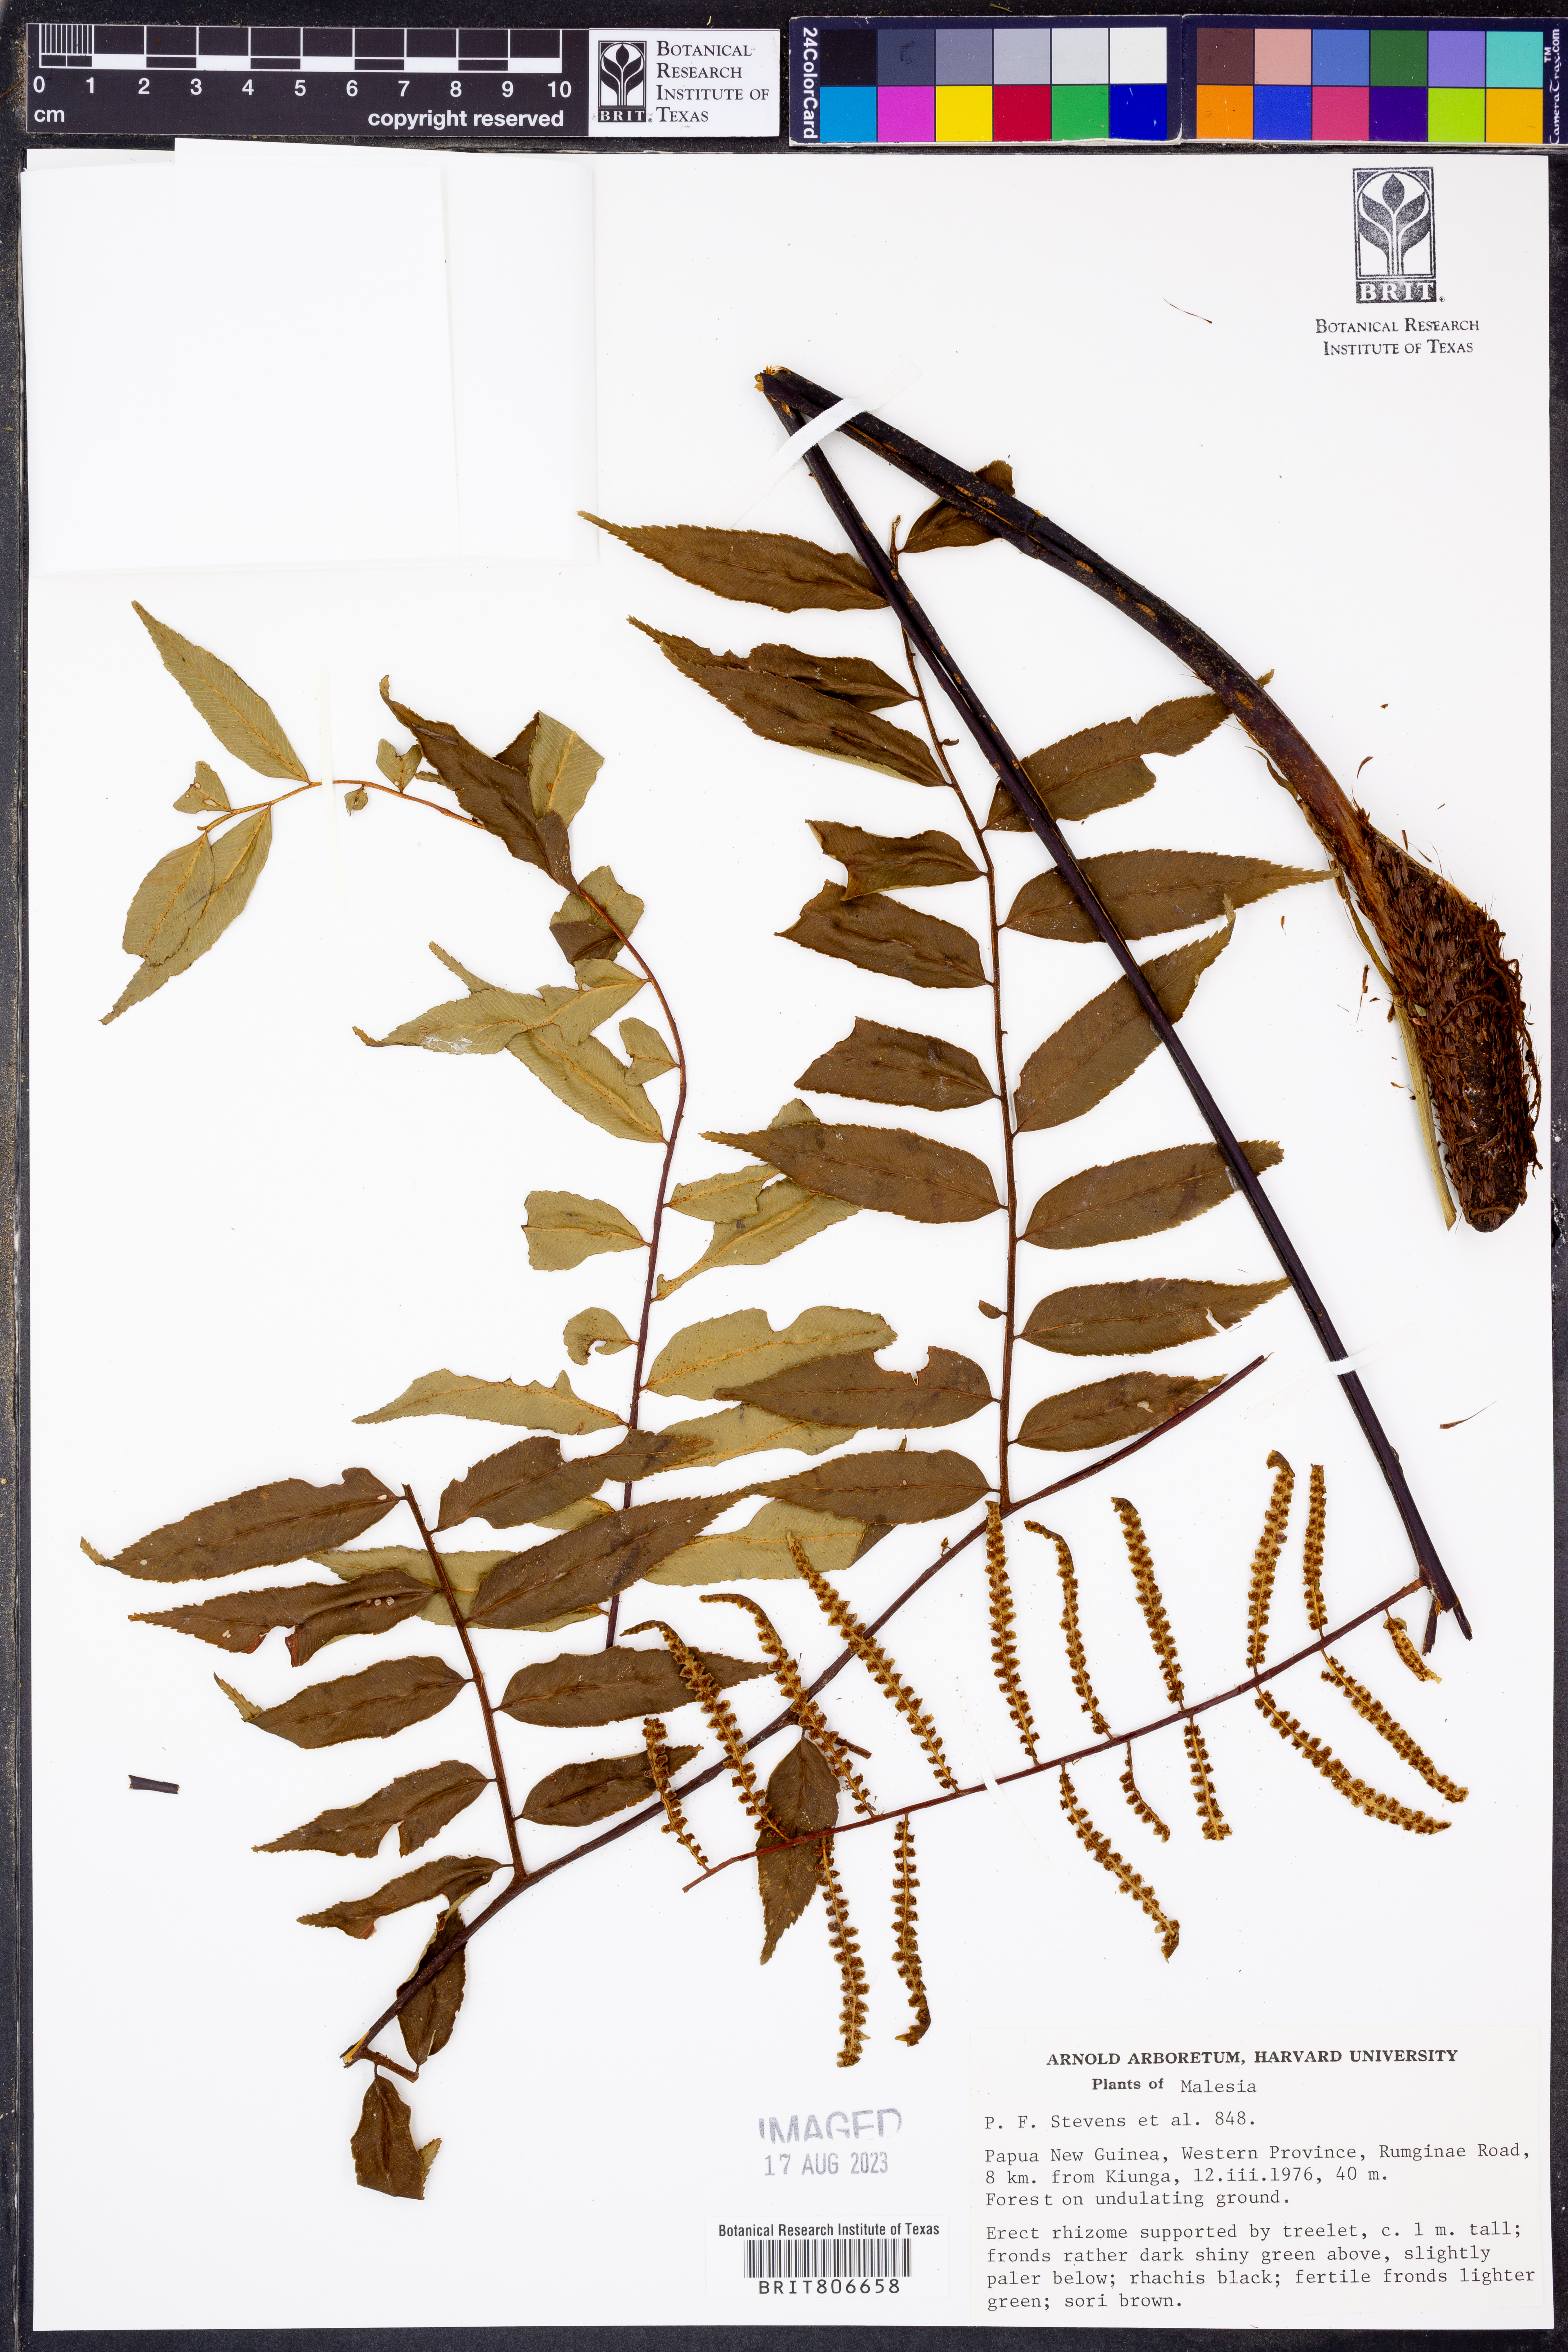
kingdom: Plantae
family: Pteridophyta
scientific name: Pteridophyta
